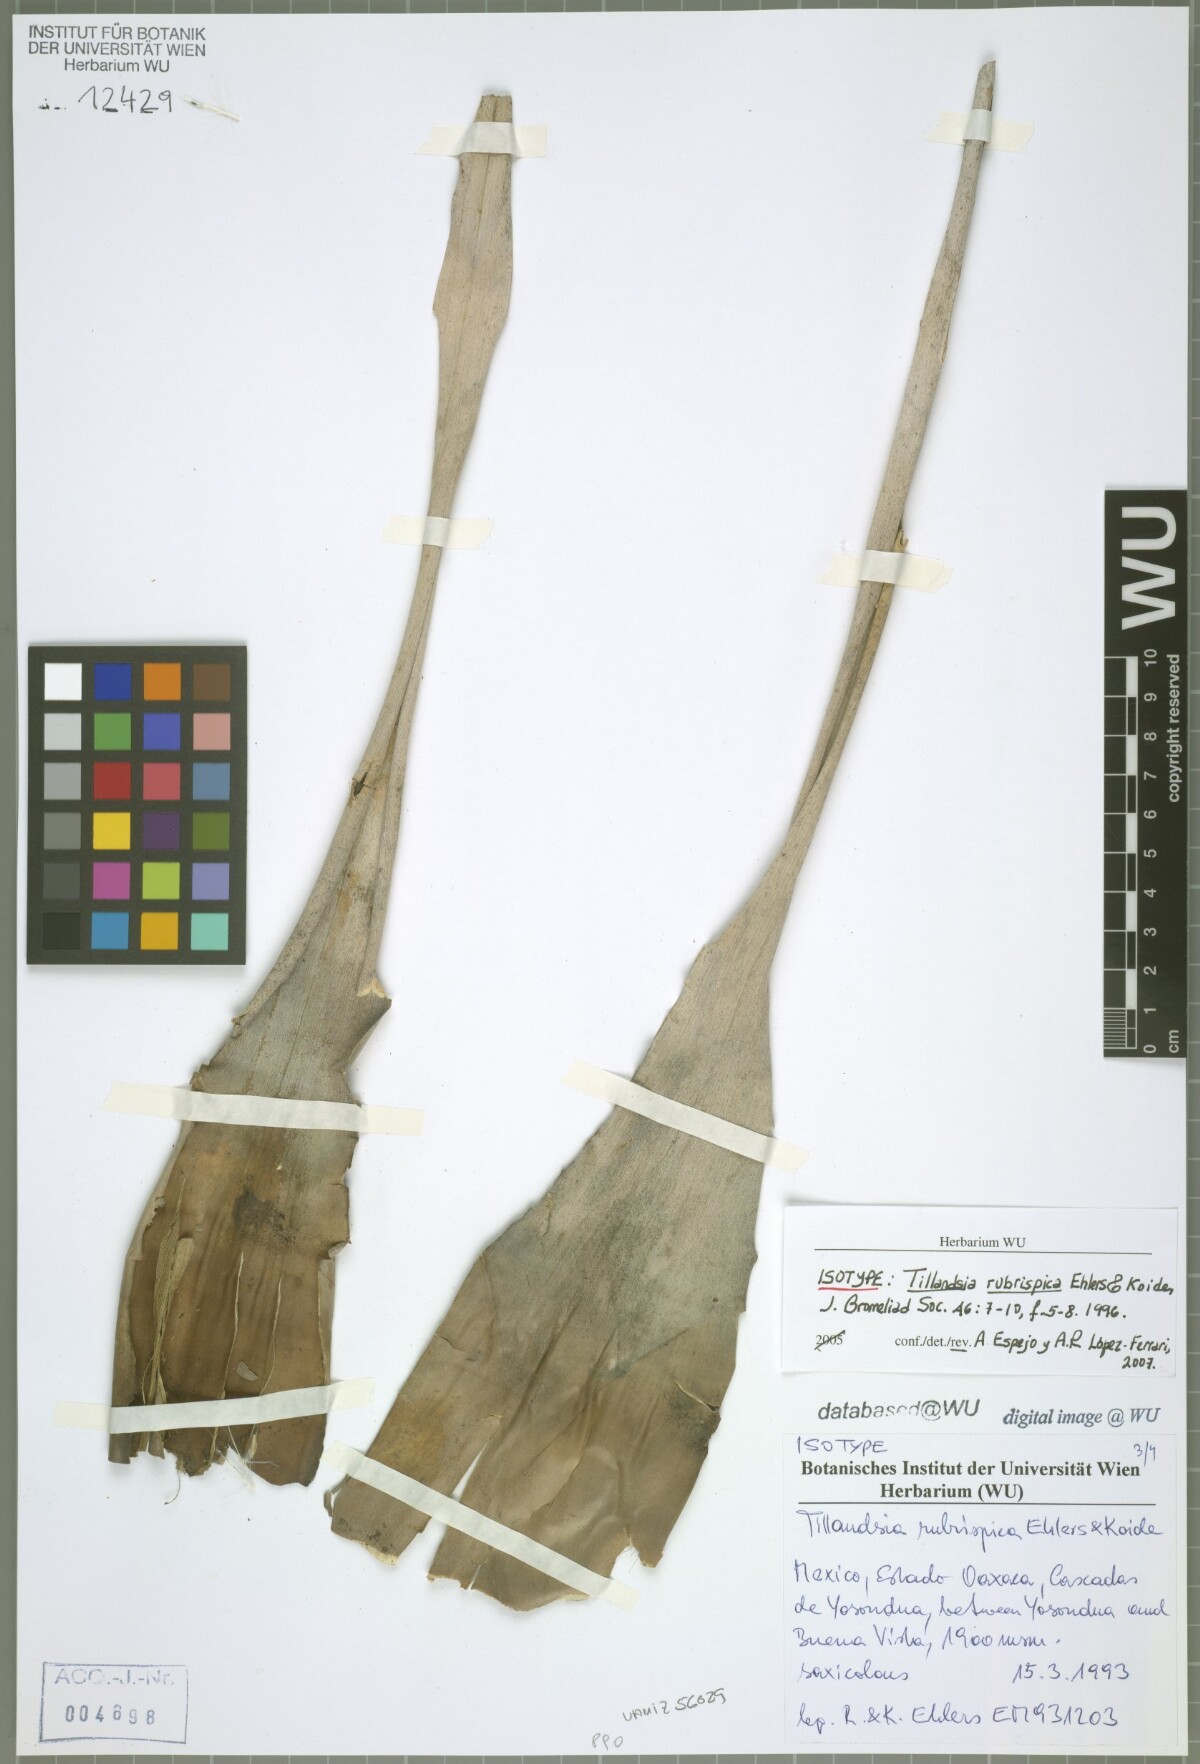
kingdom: Plantae
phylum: Tracheophyta
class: Liliopsida
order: Poales
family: Bromeliaceae
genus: Tillandsia
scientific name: Tillandsia rubrispica
